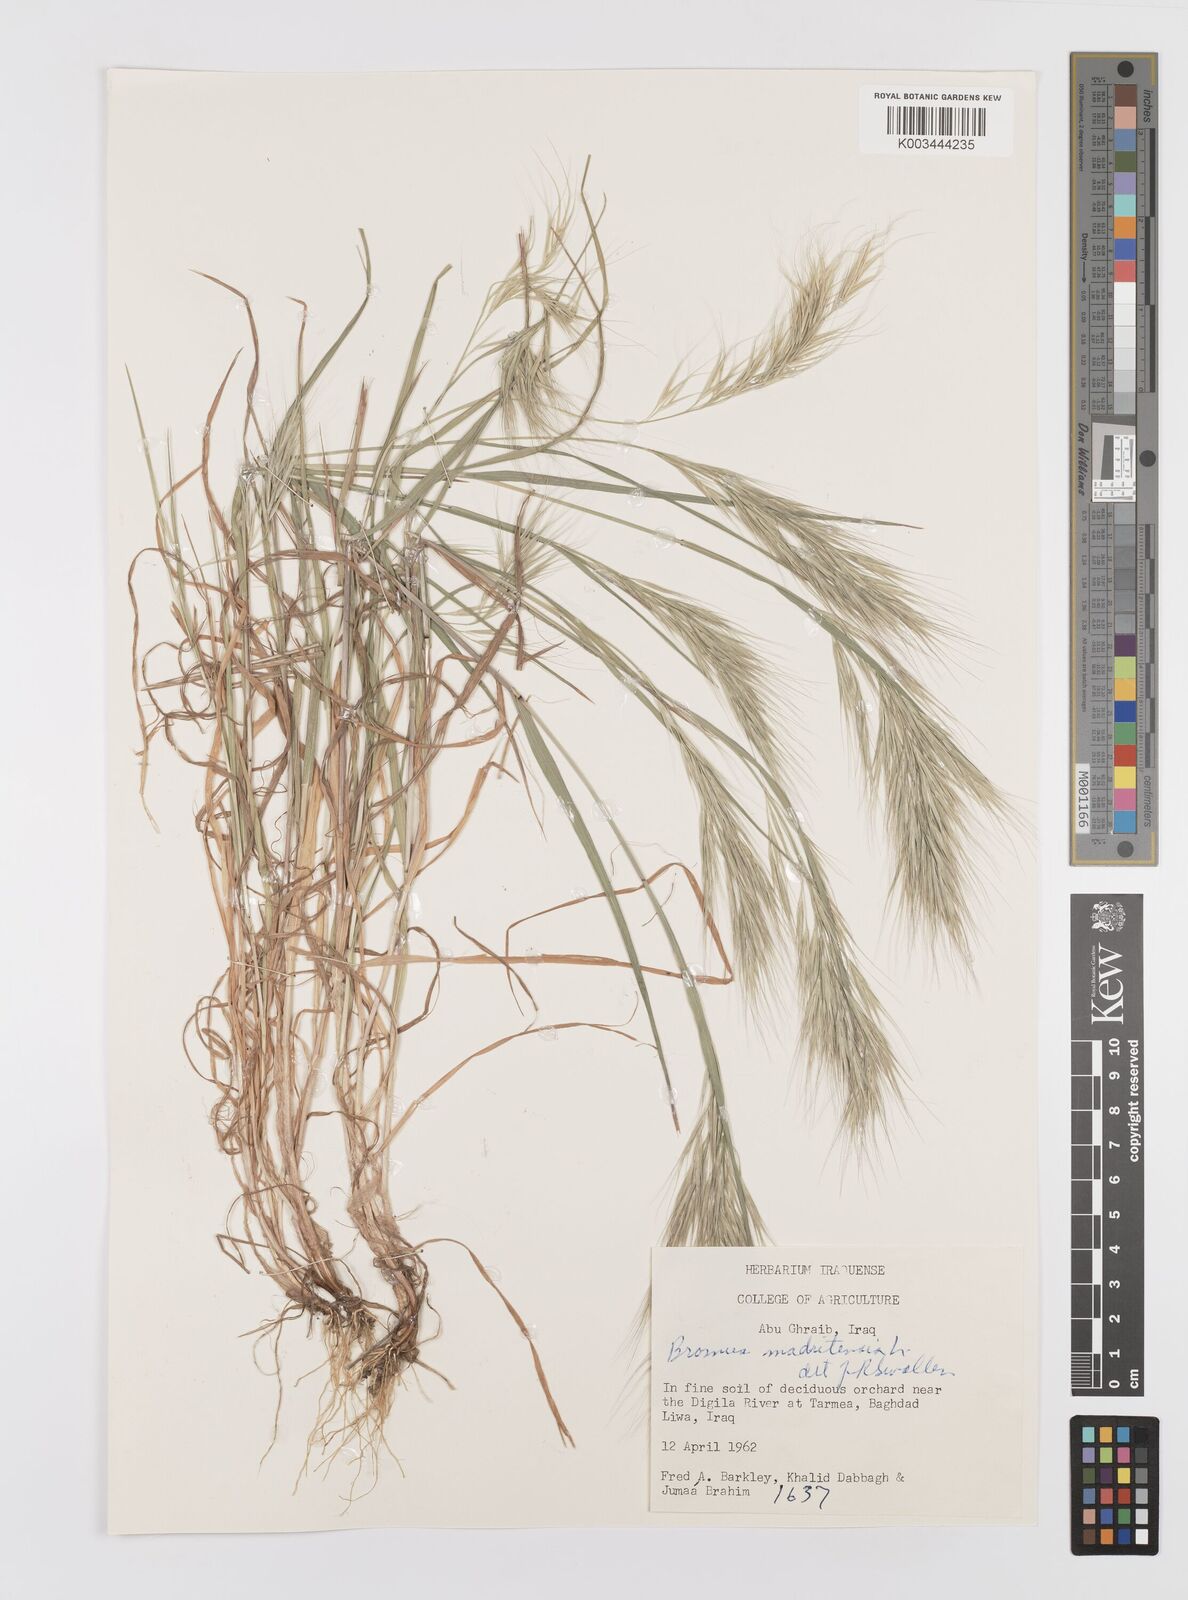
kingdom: Plantae
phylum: Tracheophyta
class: Liliopsida
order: Poales
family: Poaceae
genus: Bromus
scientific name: Bromus madritensis
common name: Compact brome
